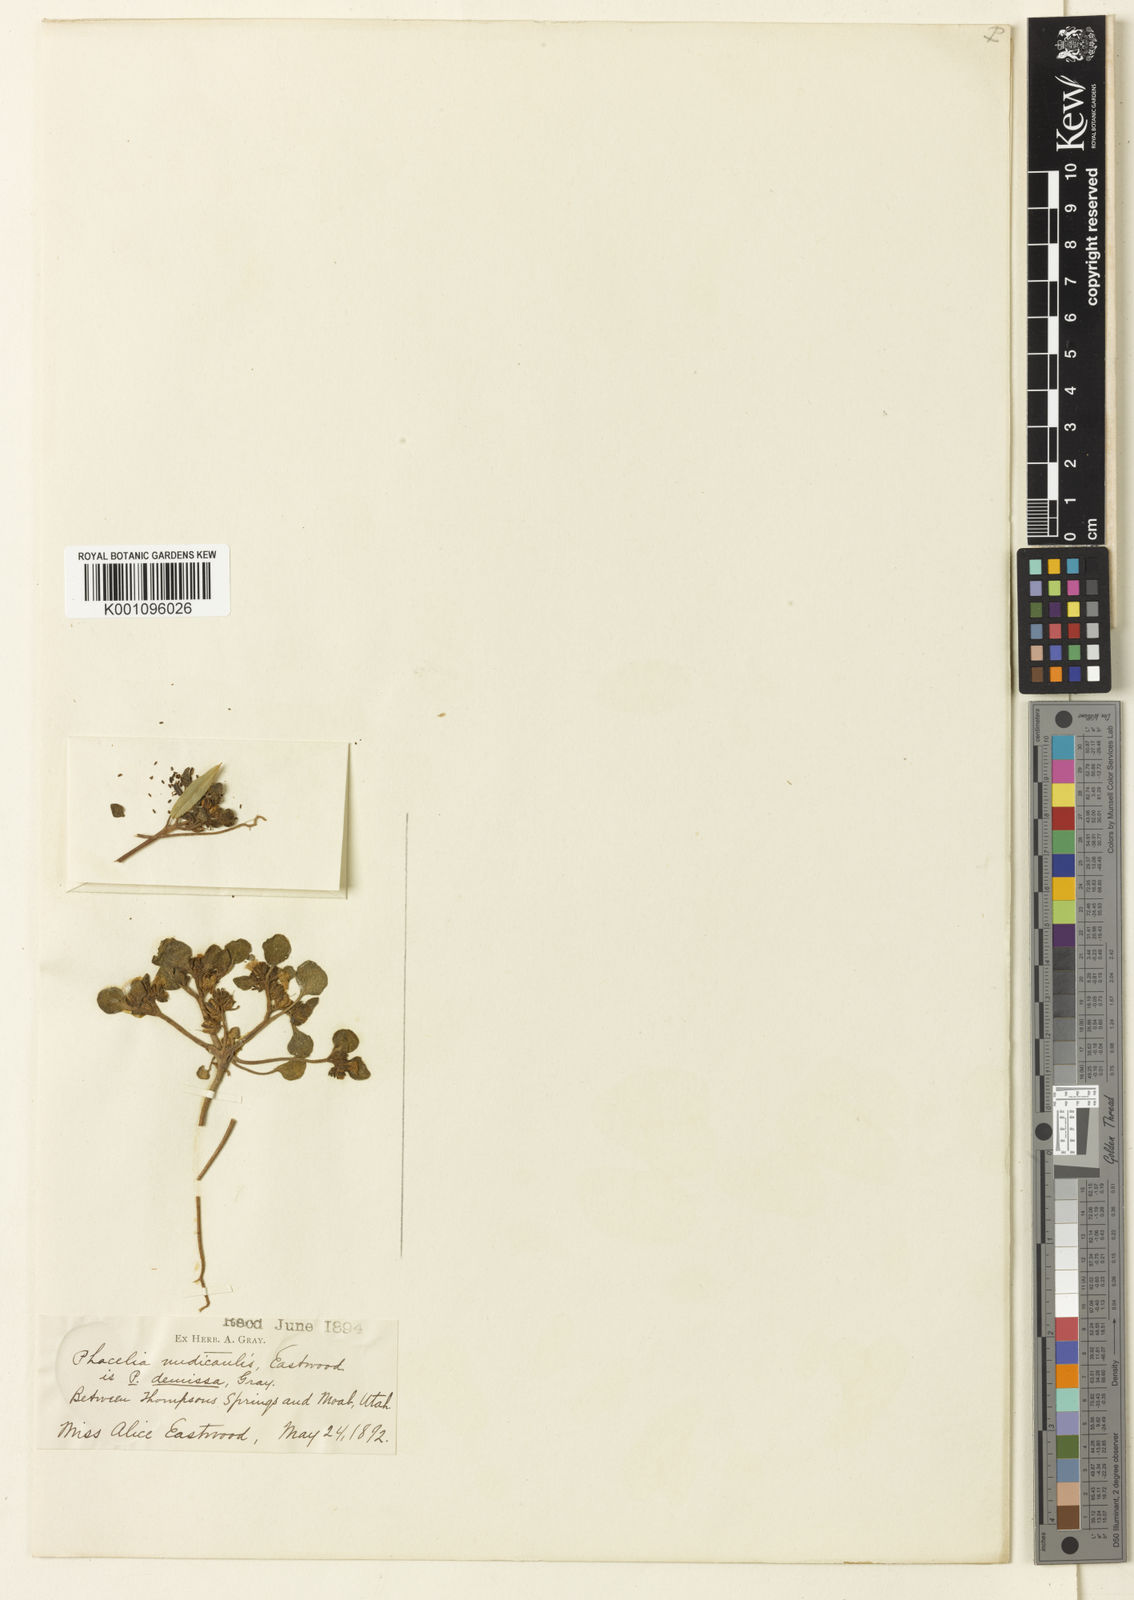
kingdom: Plantae
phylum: Tracheophyta
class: Magnoliopsida
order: Boraginales
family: Hydrophyllaceae
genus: Phacelia
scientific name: Phacelia demissa
